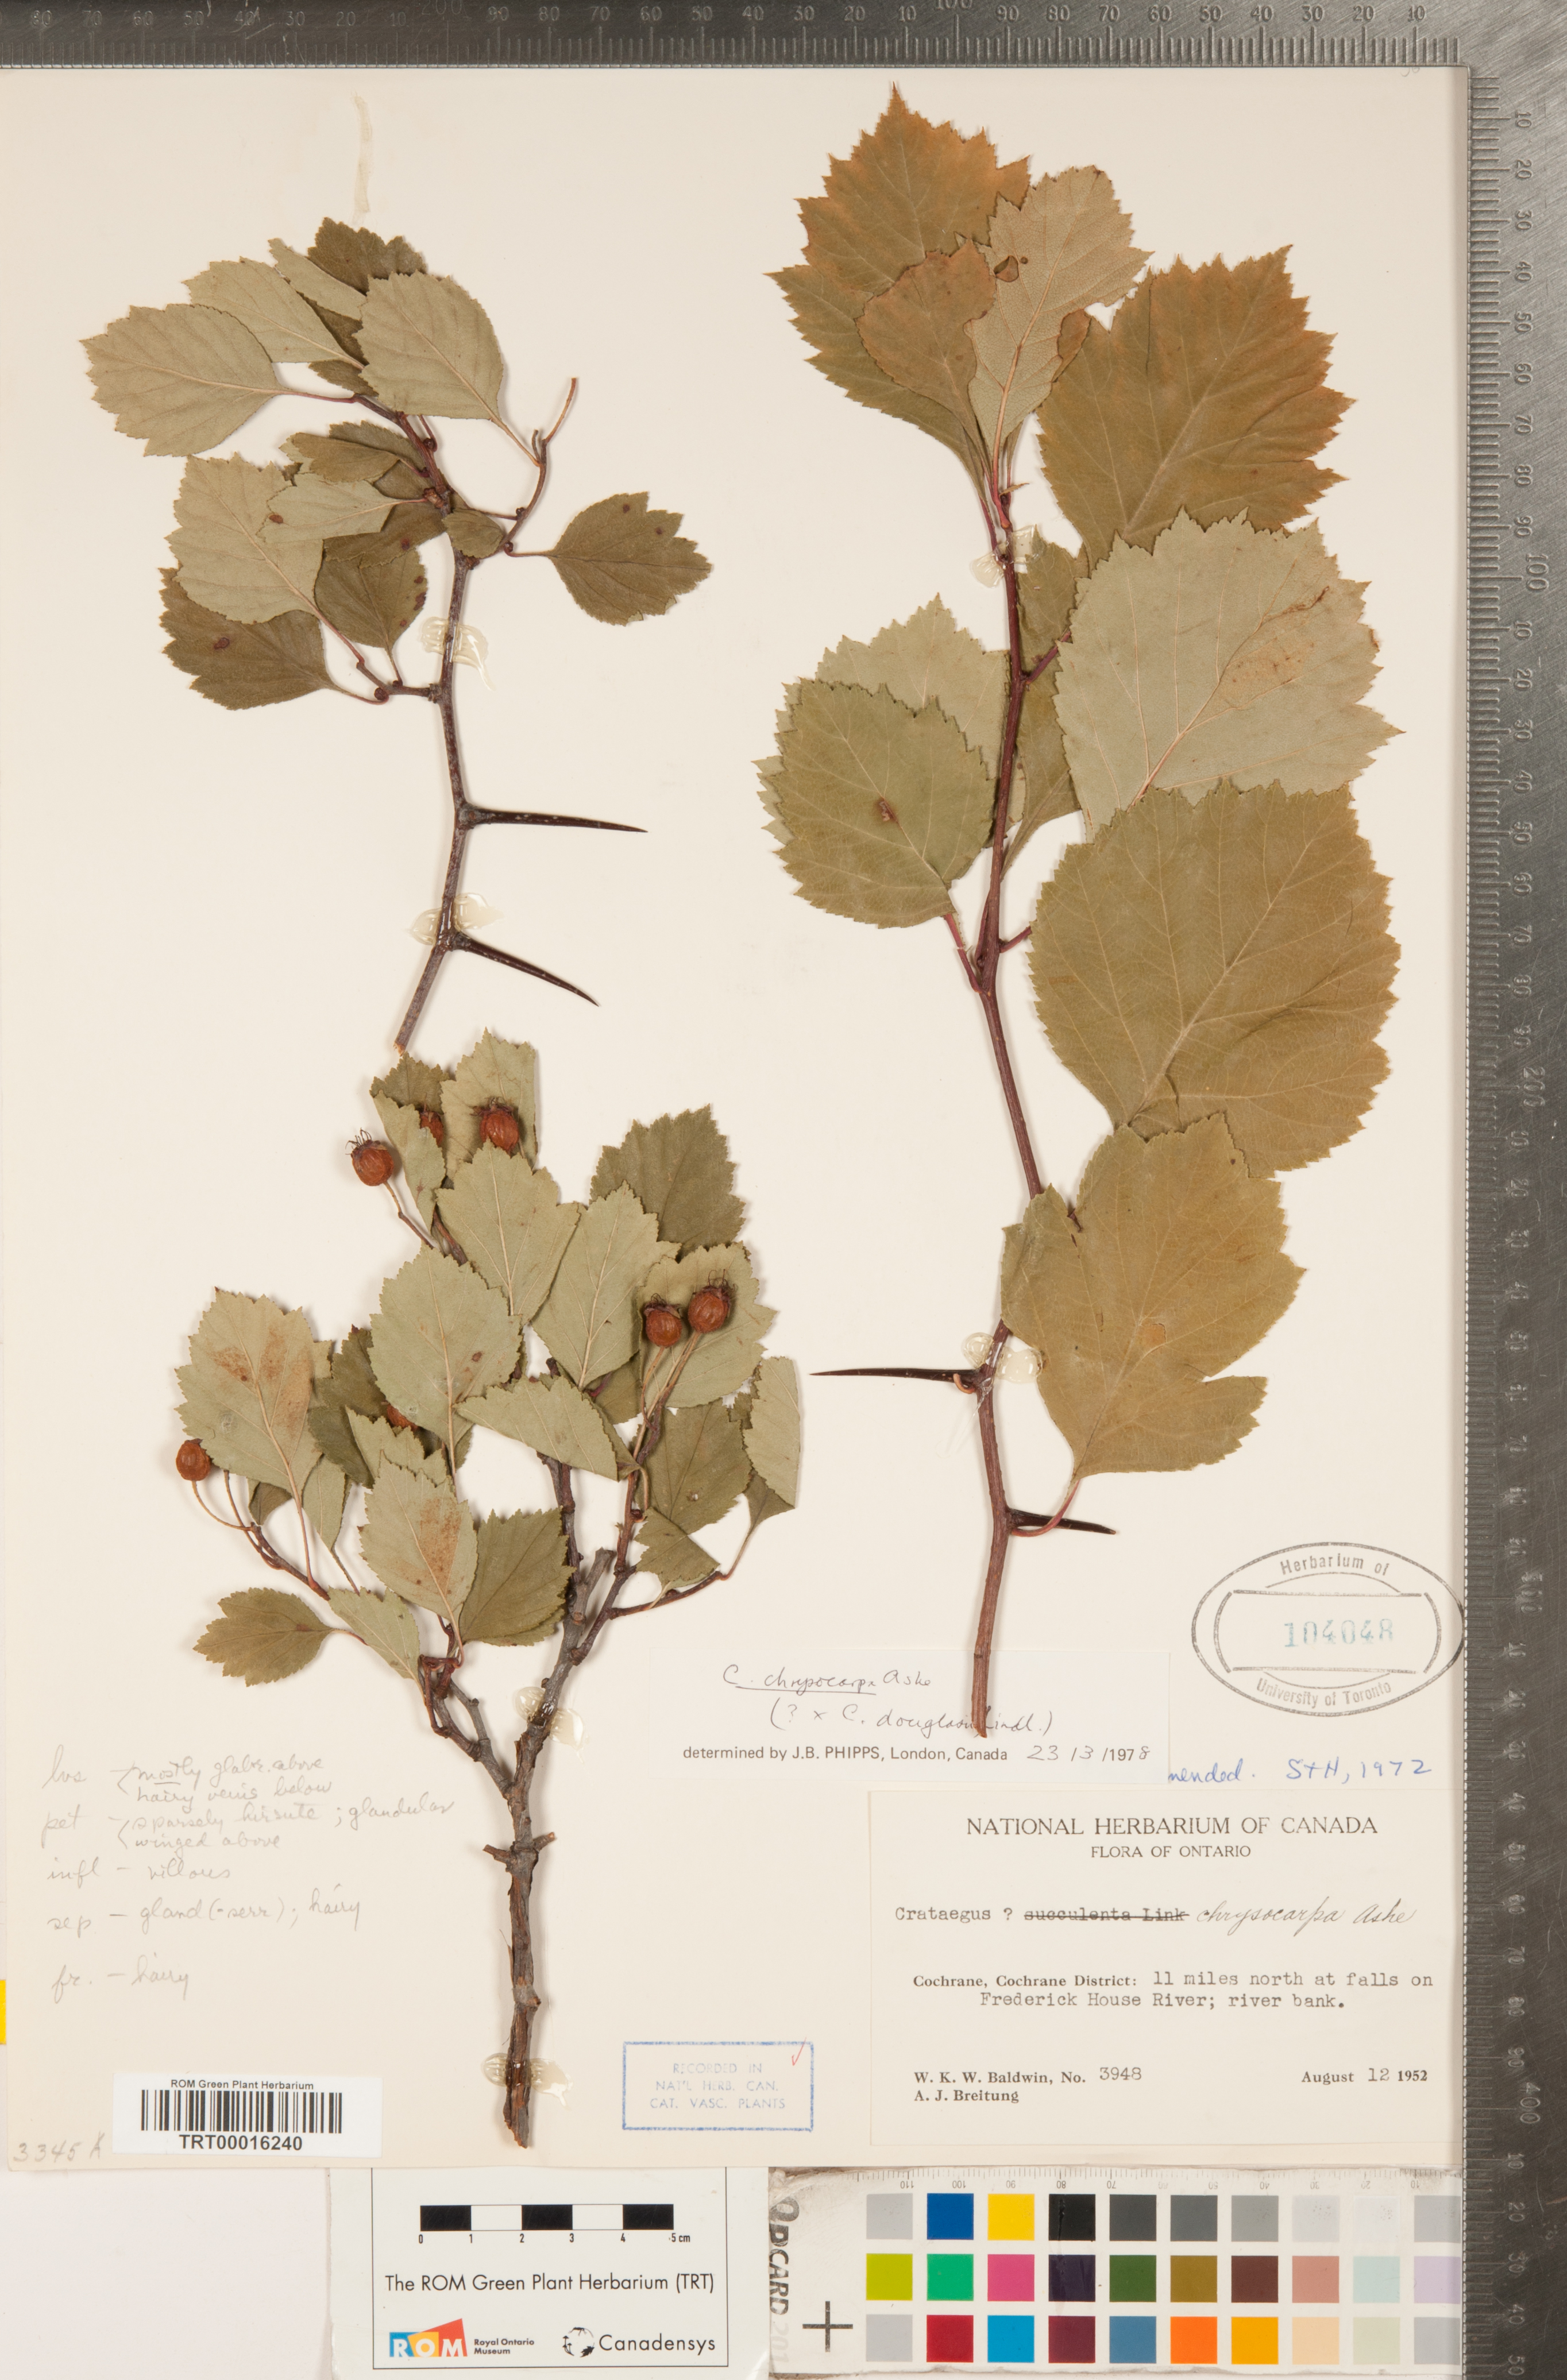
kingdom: Plantae
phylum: Tracheophyta
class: Magnoliopsida
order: Rosales
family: Rosaceae
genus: Crataegus
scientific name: Crataegus chrysocarpa
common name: Fire-berry hawthorn
